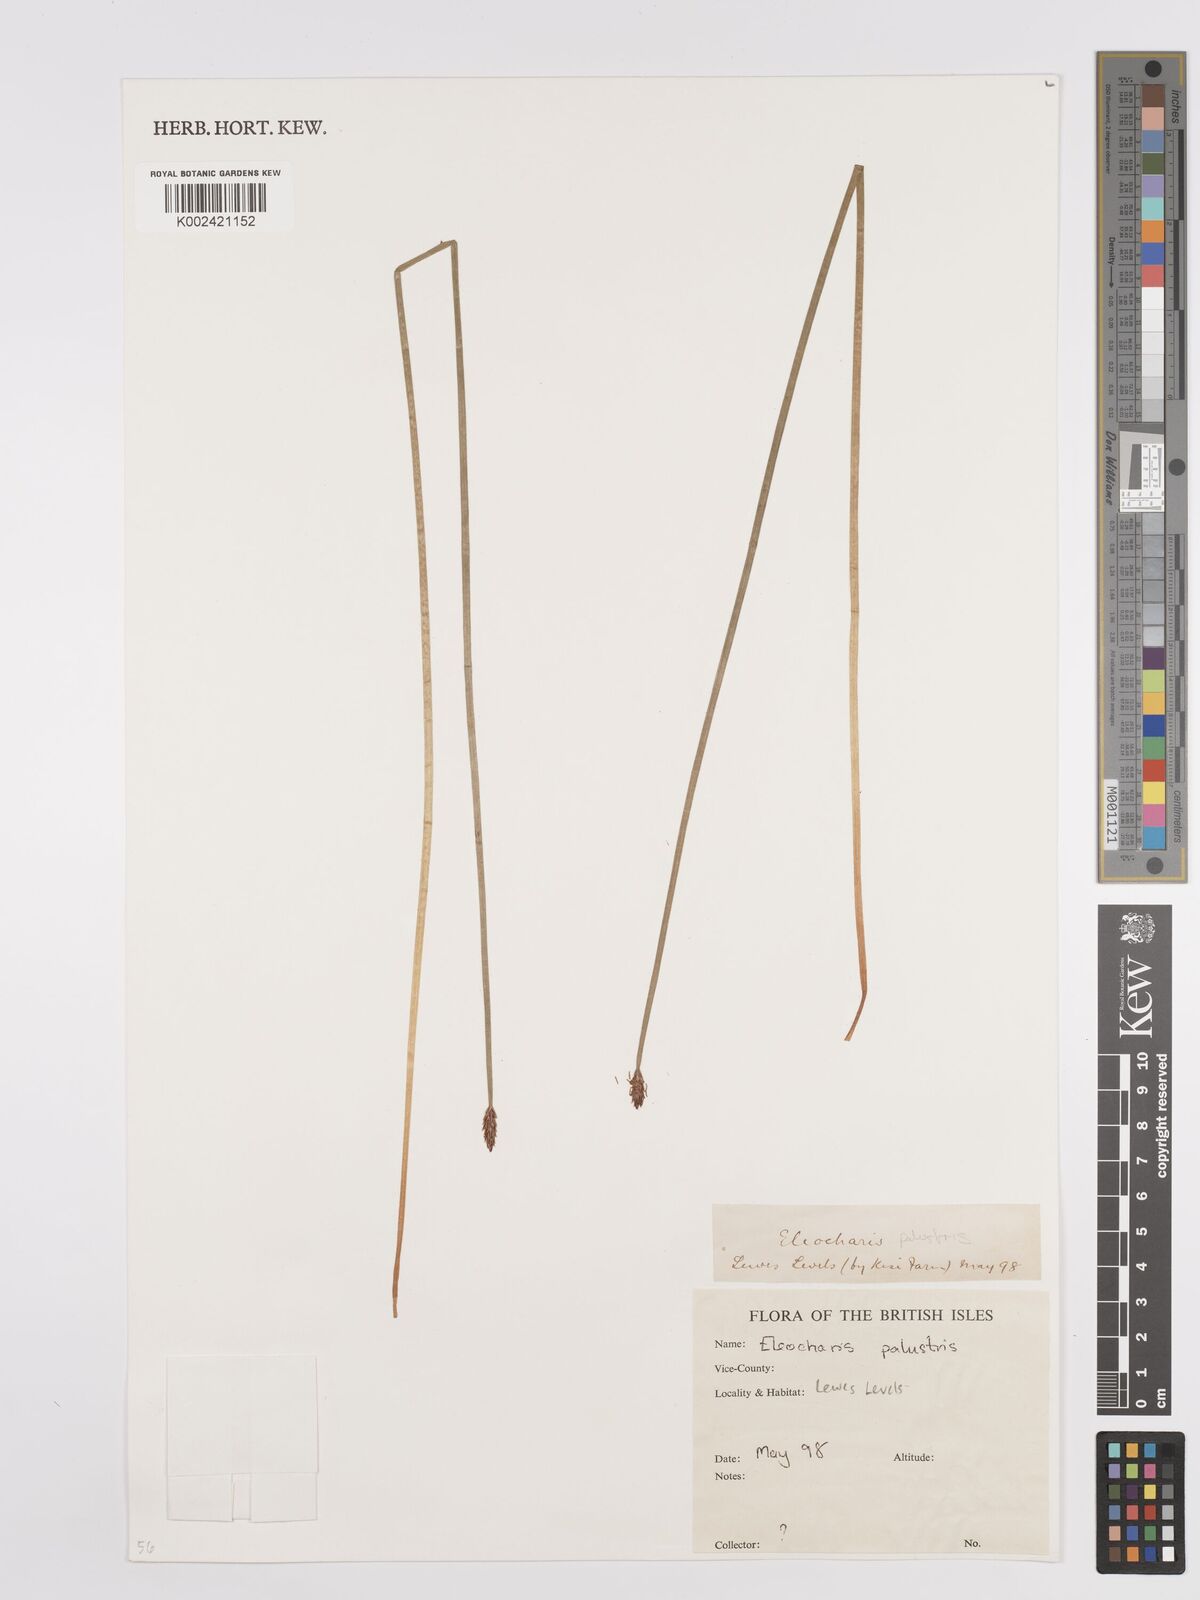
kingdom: Plantae
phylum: Tracheophyta
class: Liliopsida
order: Poales
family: Cyperaceae
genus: Eleocharis
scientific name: Eleocharis palustris
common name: Common spike-rush
